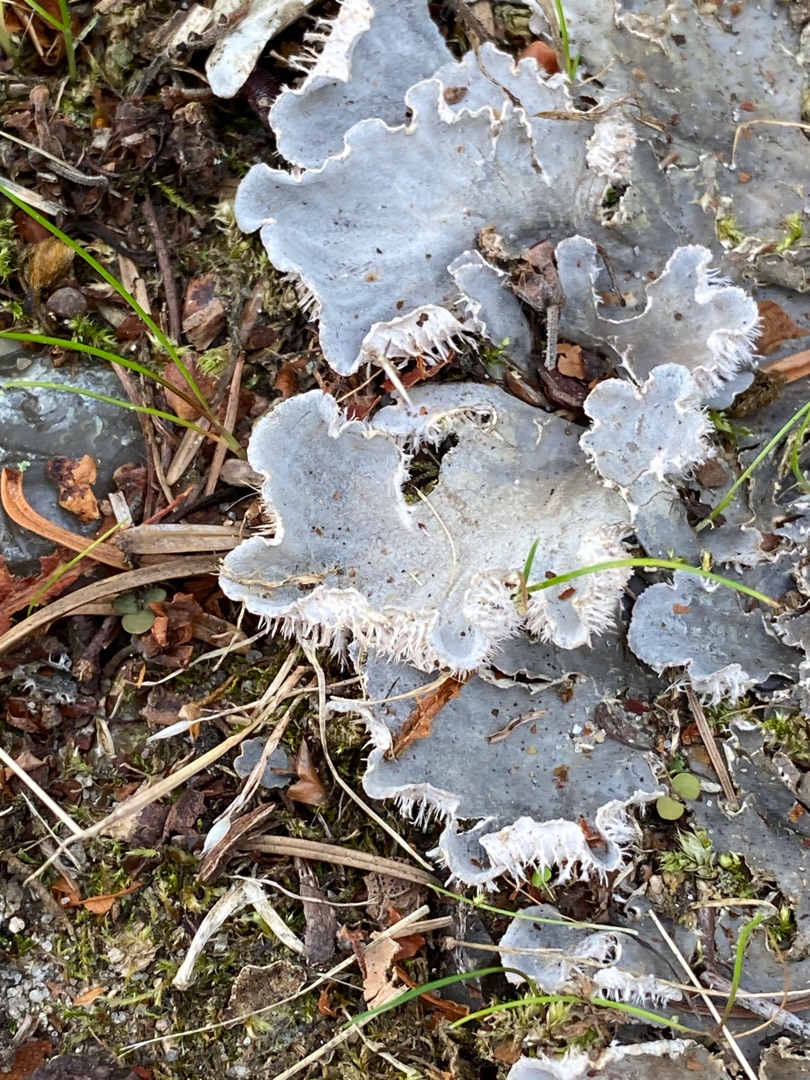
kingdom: Fungi
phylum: Ascomycota
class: Lecanoromycetes
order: Peltigerales
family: Peltigeraceae
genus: Peltigera
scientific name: Peltigera canina
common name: Hunde-skjoldlav
